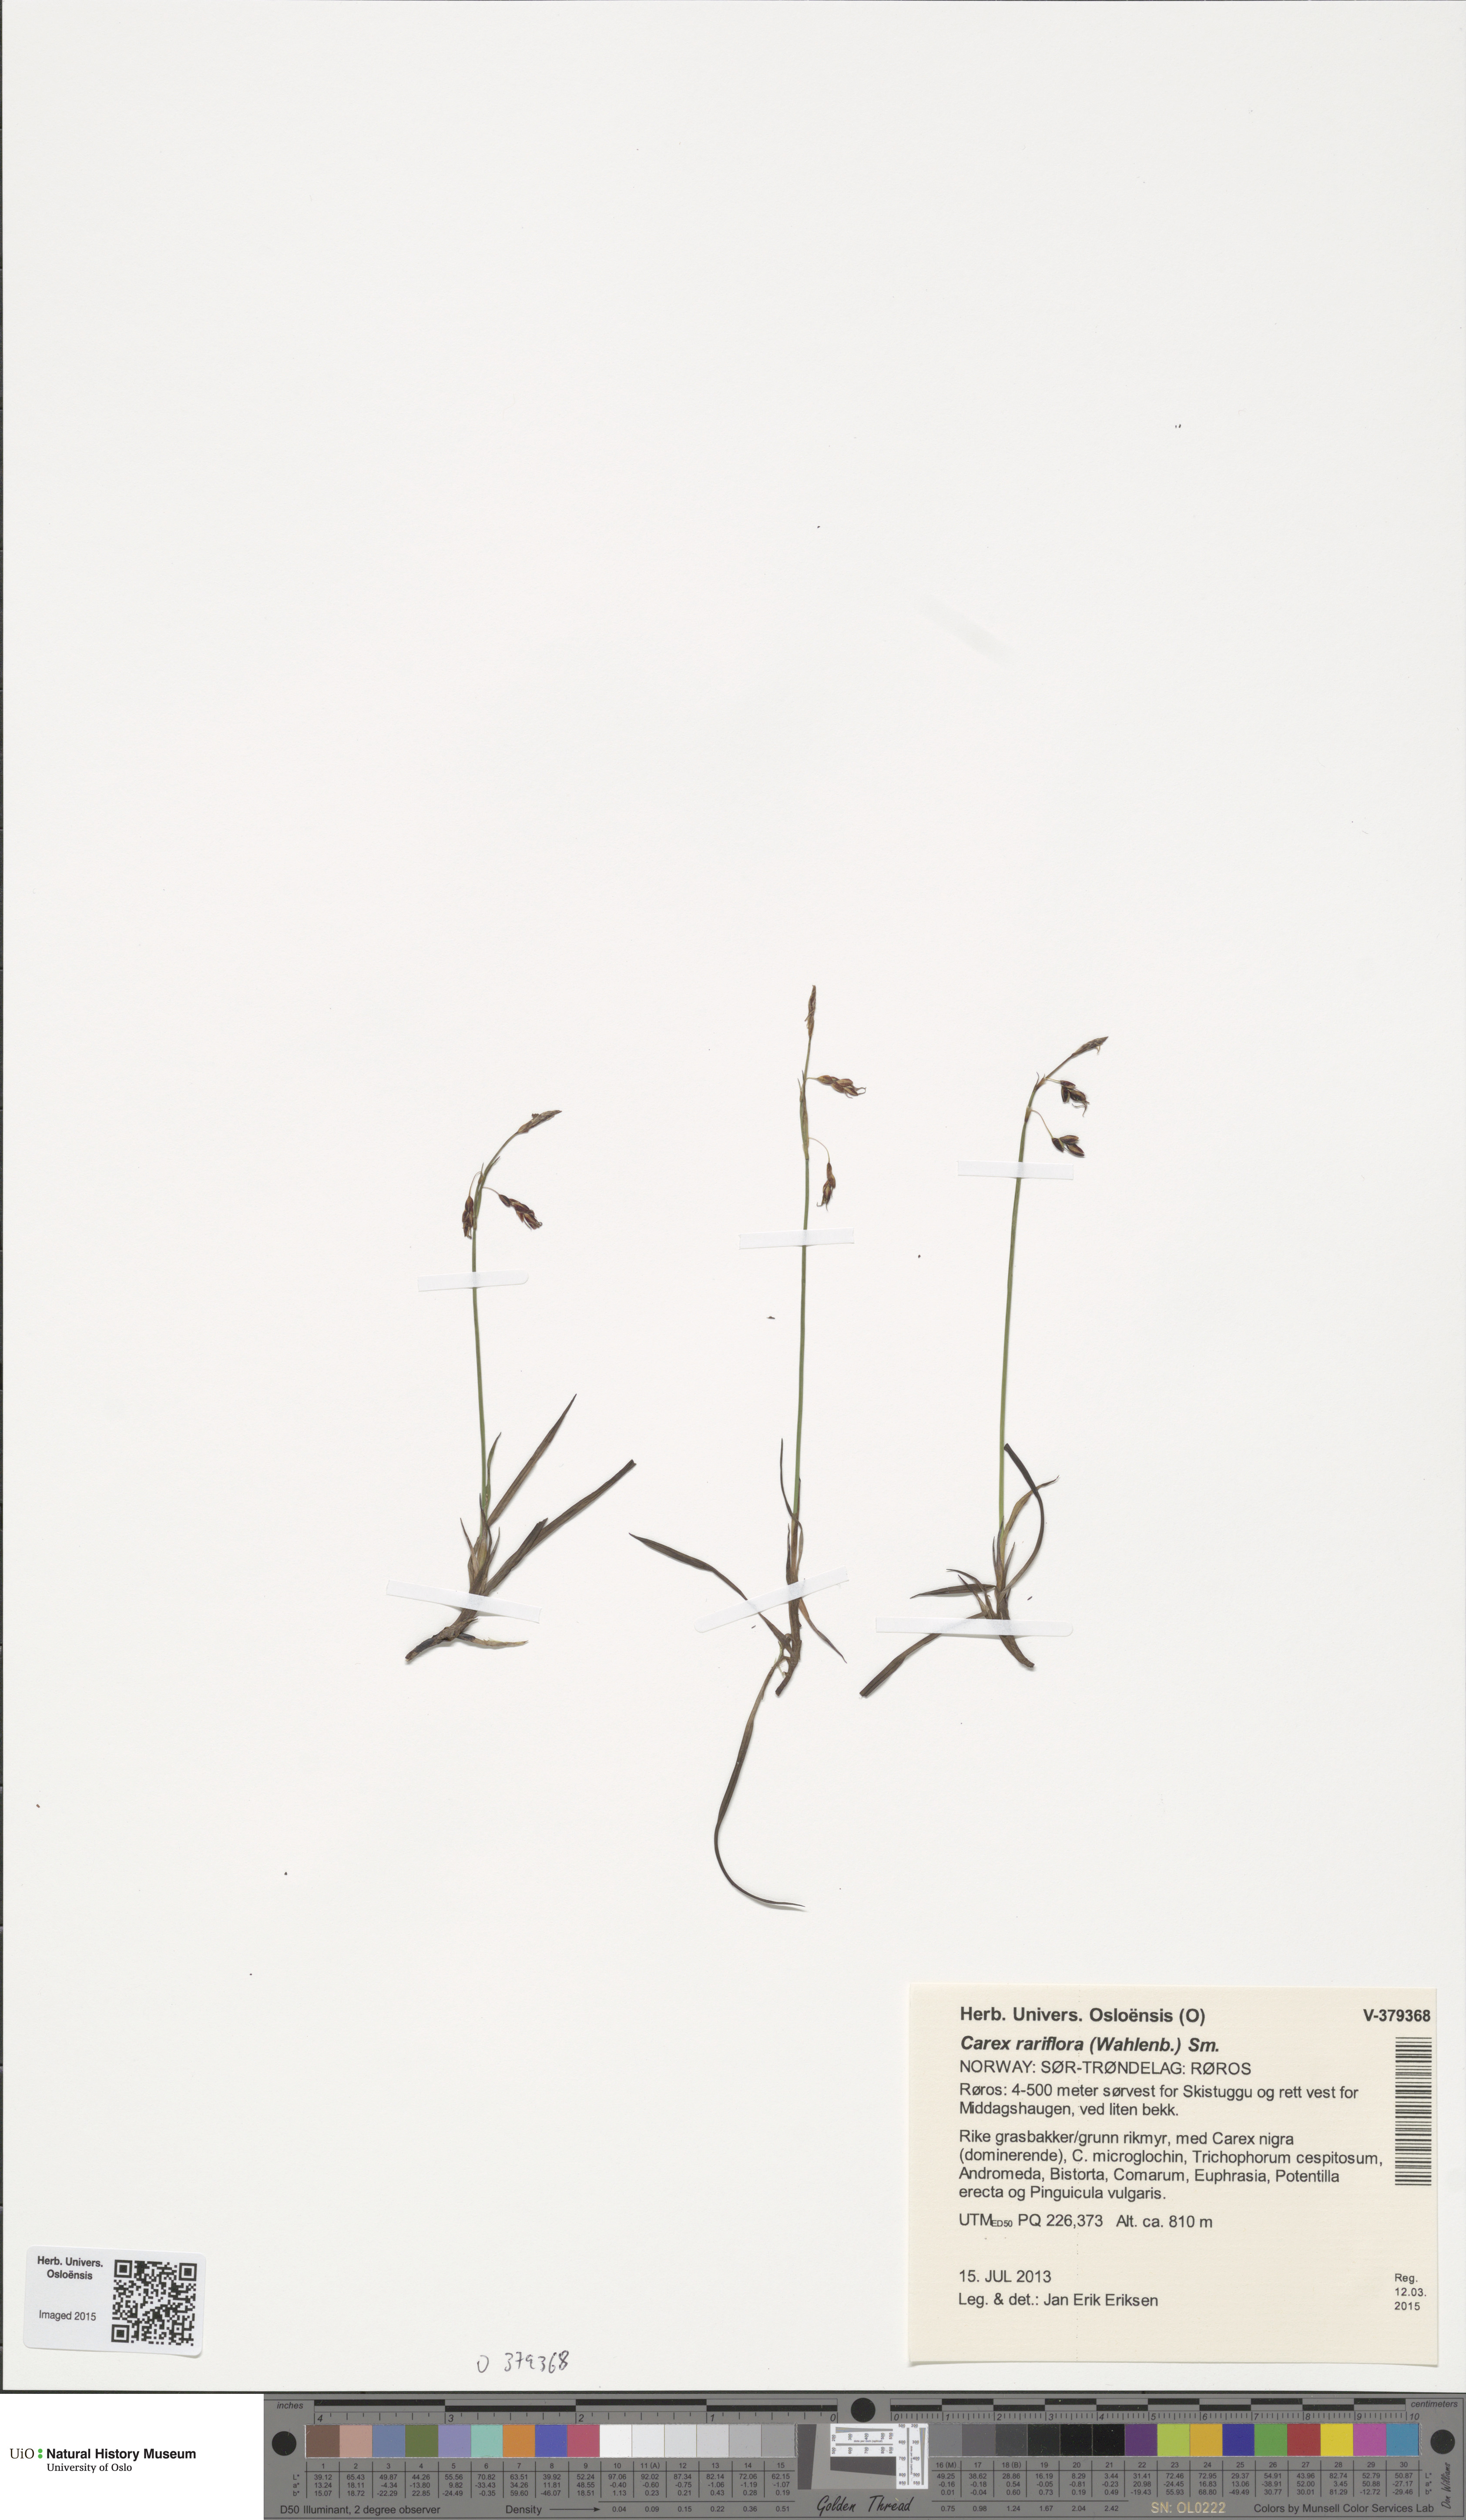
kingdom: Plantae
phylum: Tracheophyta
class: Liliopsida
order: Poales
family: Cyperaceae
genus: Carex
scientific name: Carex rariflora
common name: Loose-flowered alpine sedge
